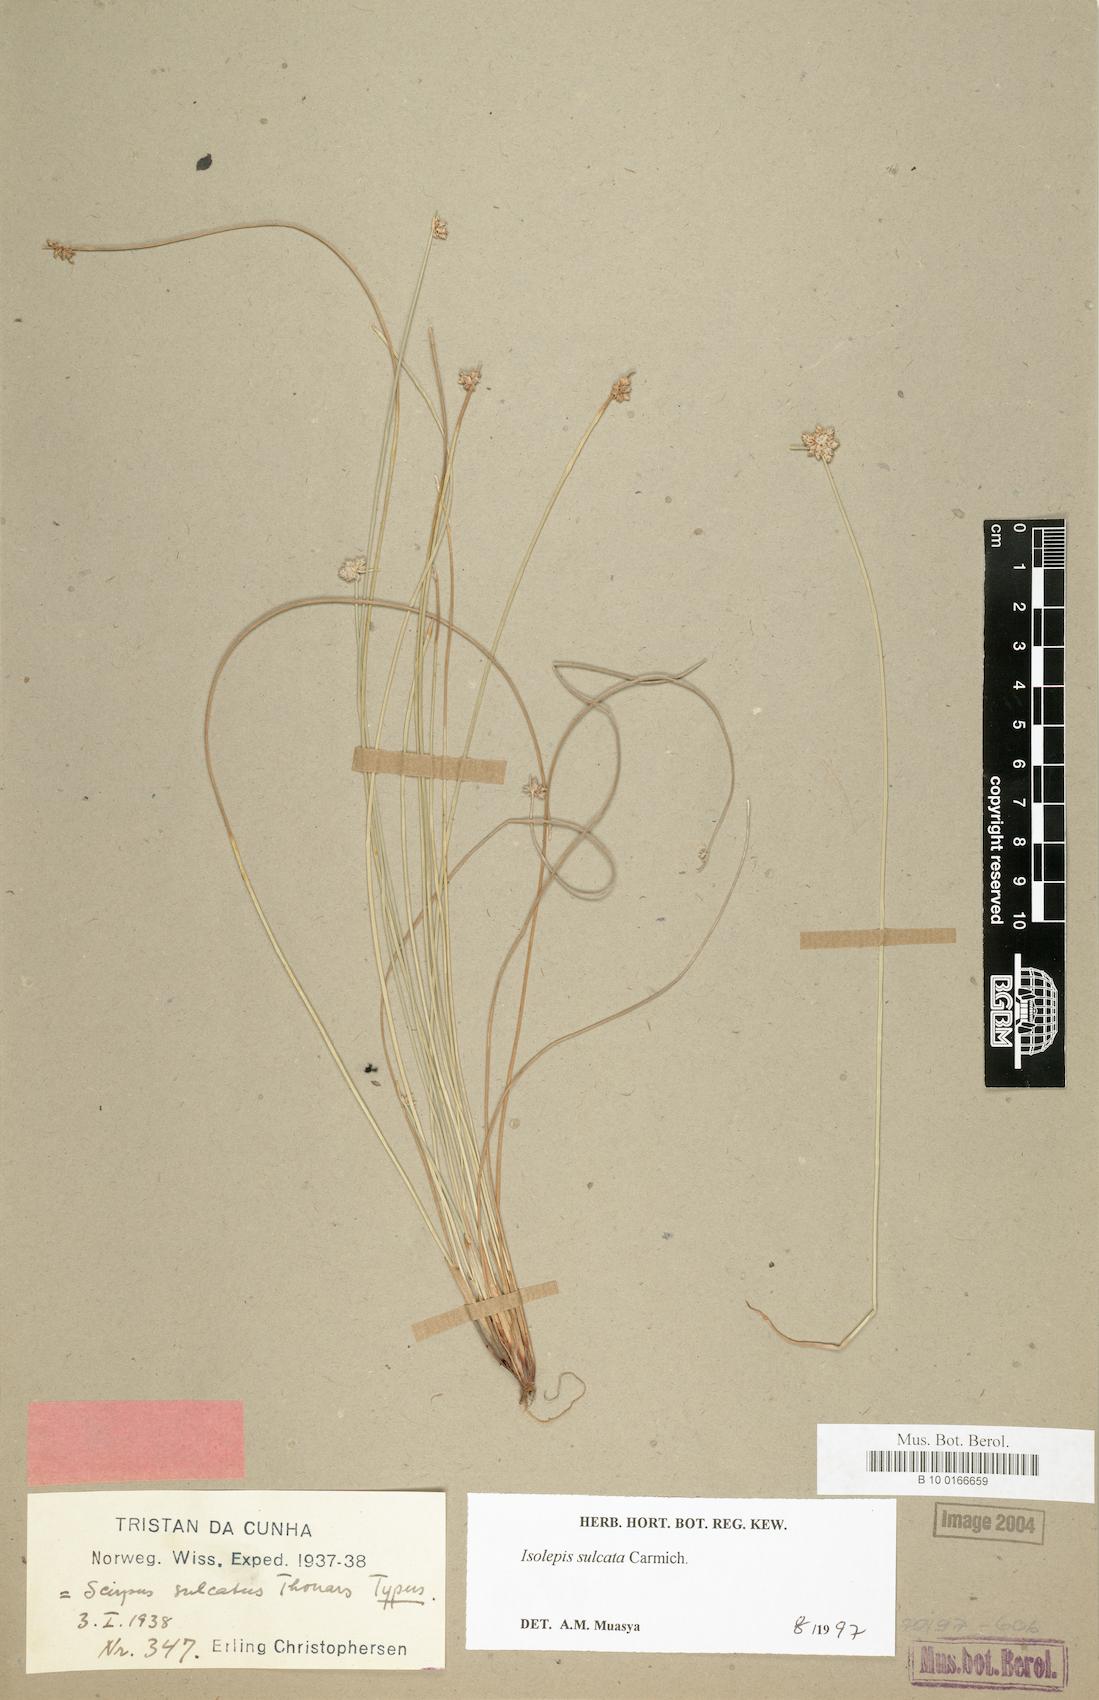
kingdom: Plantae
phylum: Tracheophyta
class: Liliopsida
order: Poales
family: Cyperaceae
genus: Isolepis
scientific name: Isolepis sulcata
